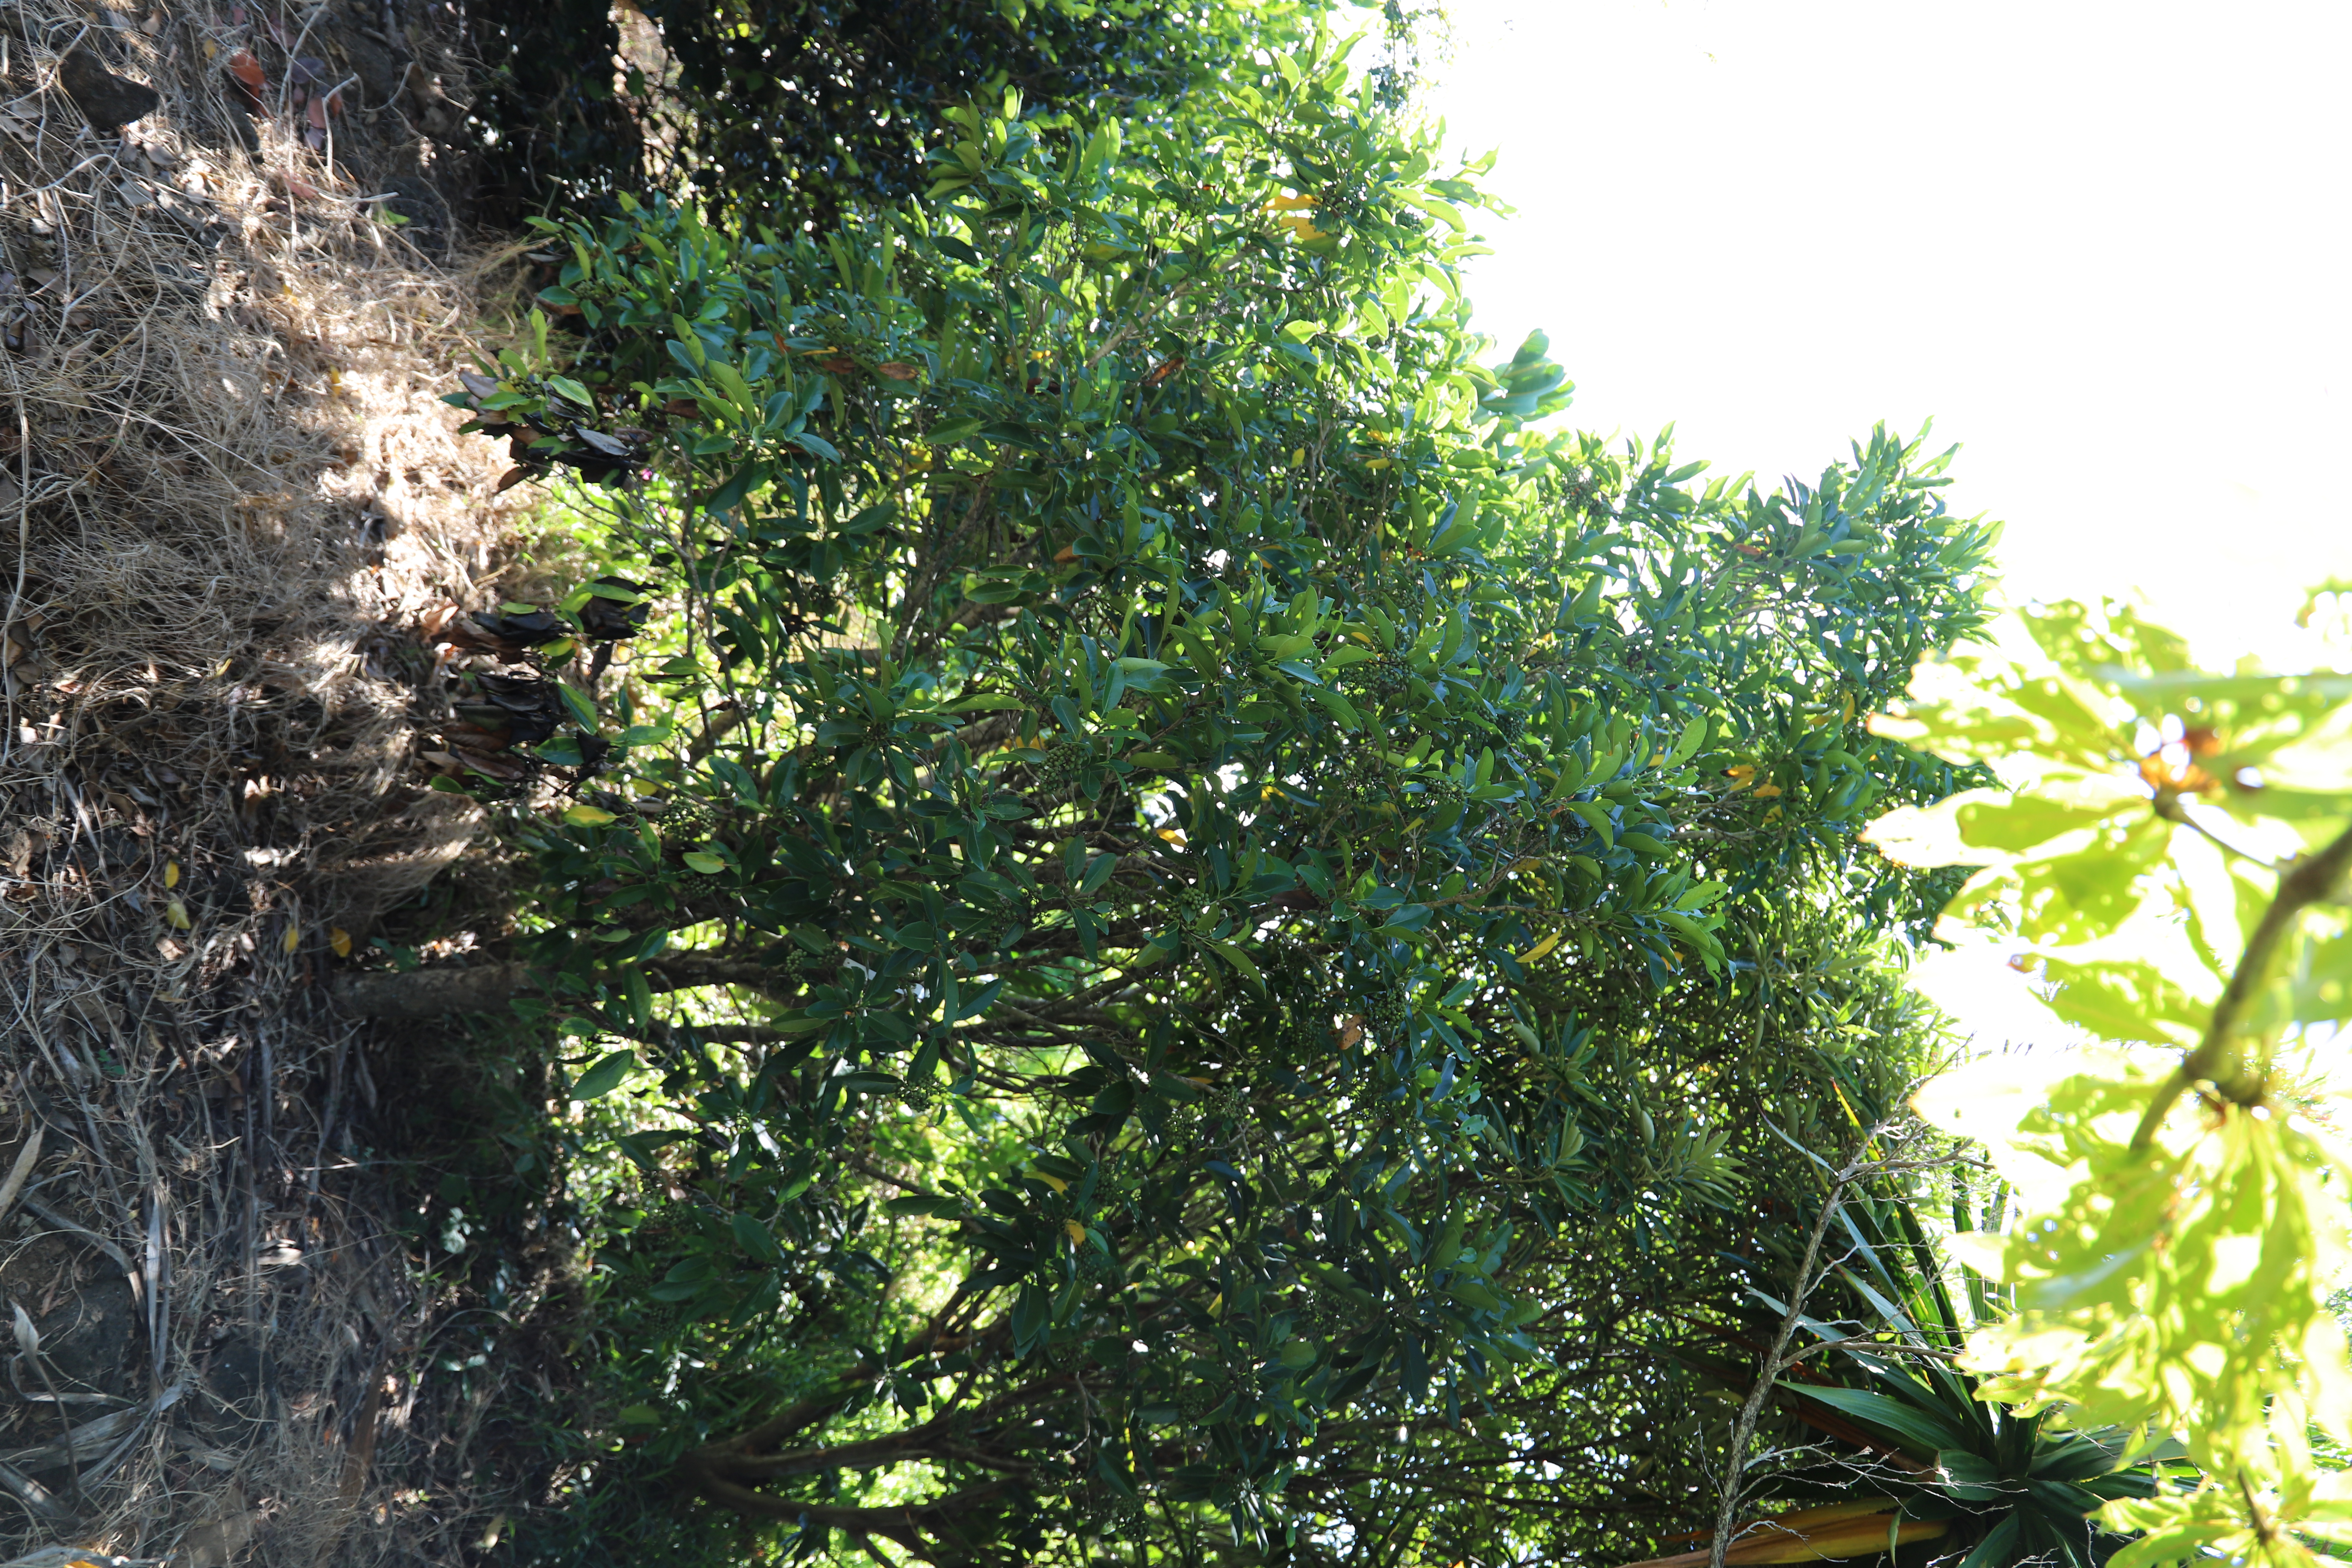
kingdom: Plantae
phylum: Tracheophyta
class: Magnoliopsida
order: Gentianales
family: Rubiaceae
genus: Coptosperma
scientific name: Coptosperma borbonicum
